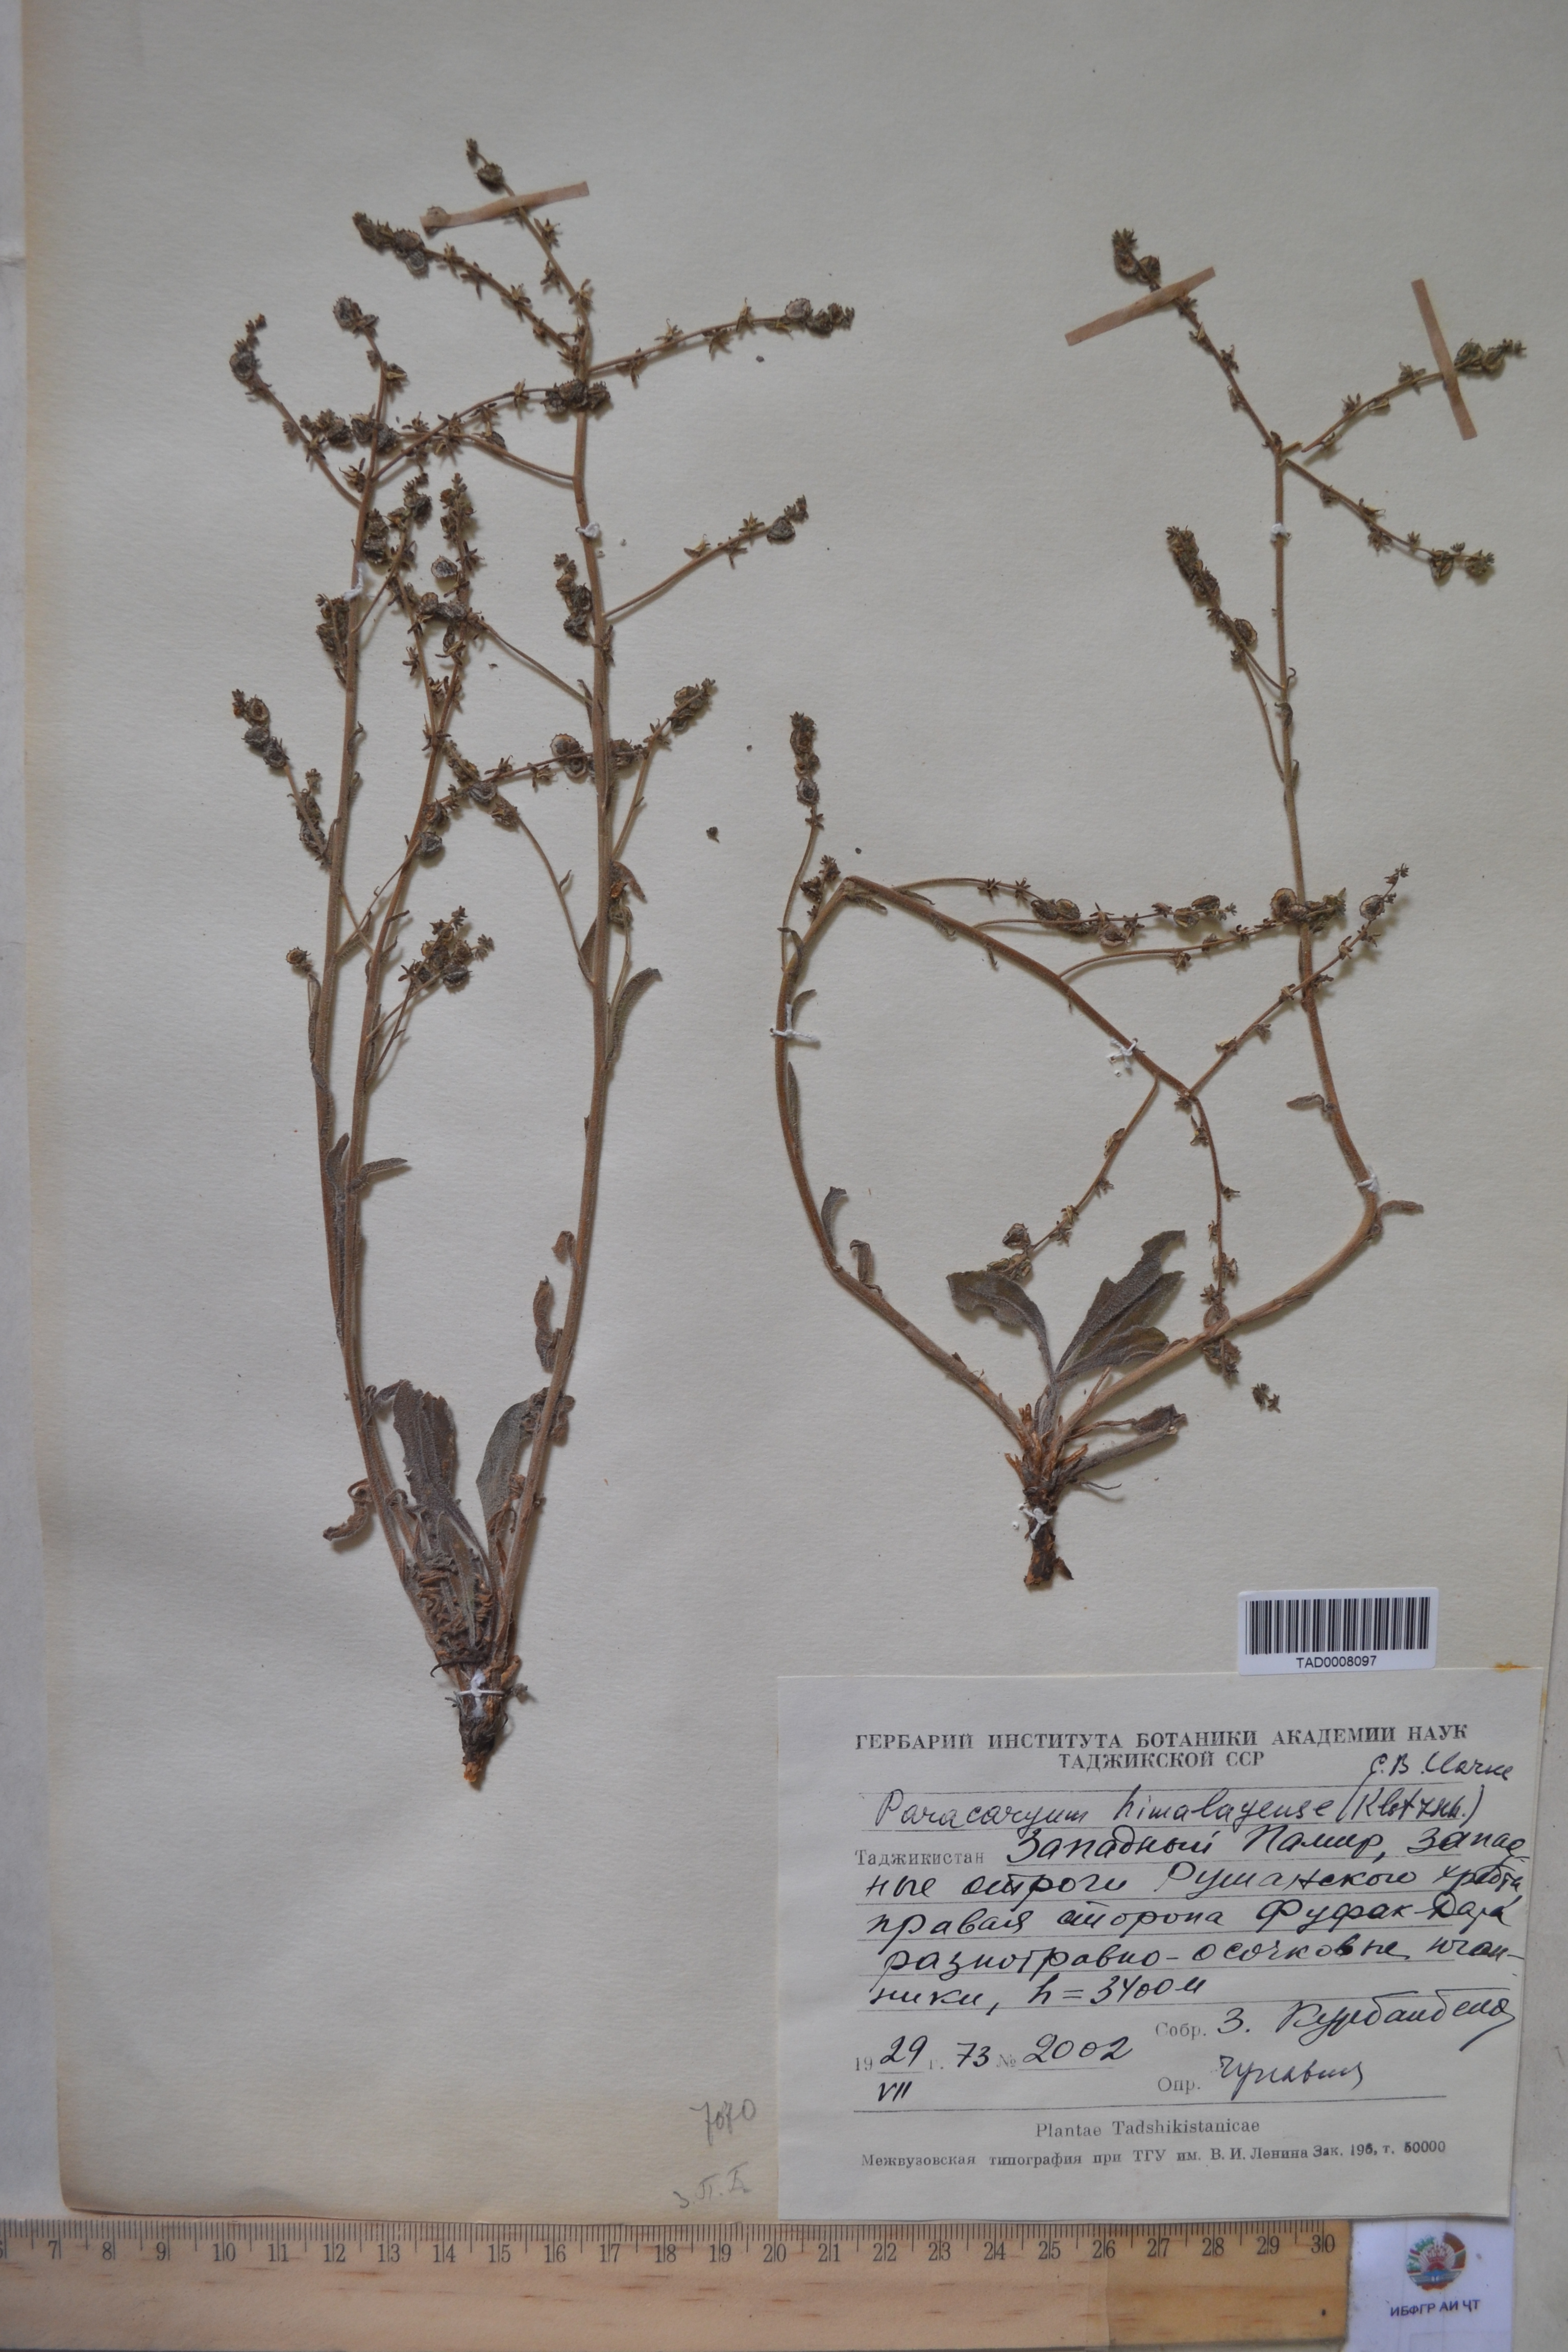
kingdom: Plantae
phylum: Tracheophyta
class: Magnoliopsida
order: Boraginales
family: Boraginaceae
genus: Paracaryum
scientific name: Paracaryum himalayense
